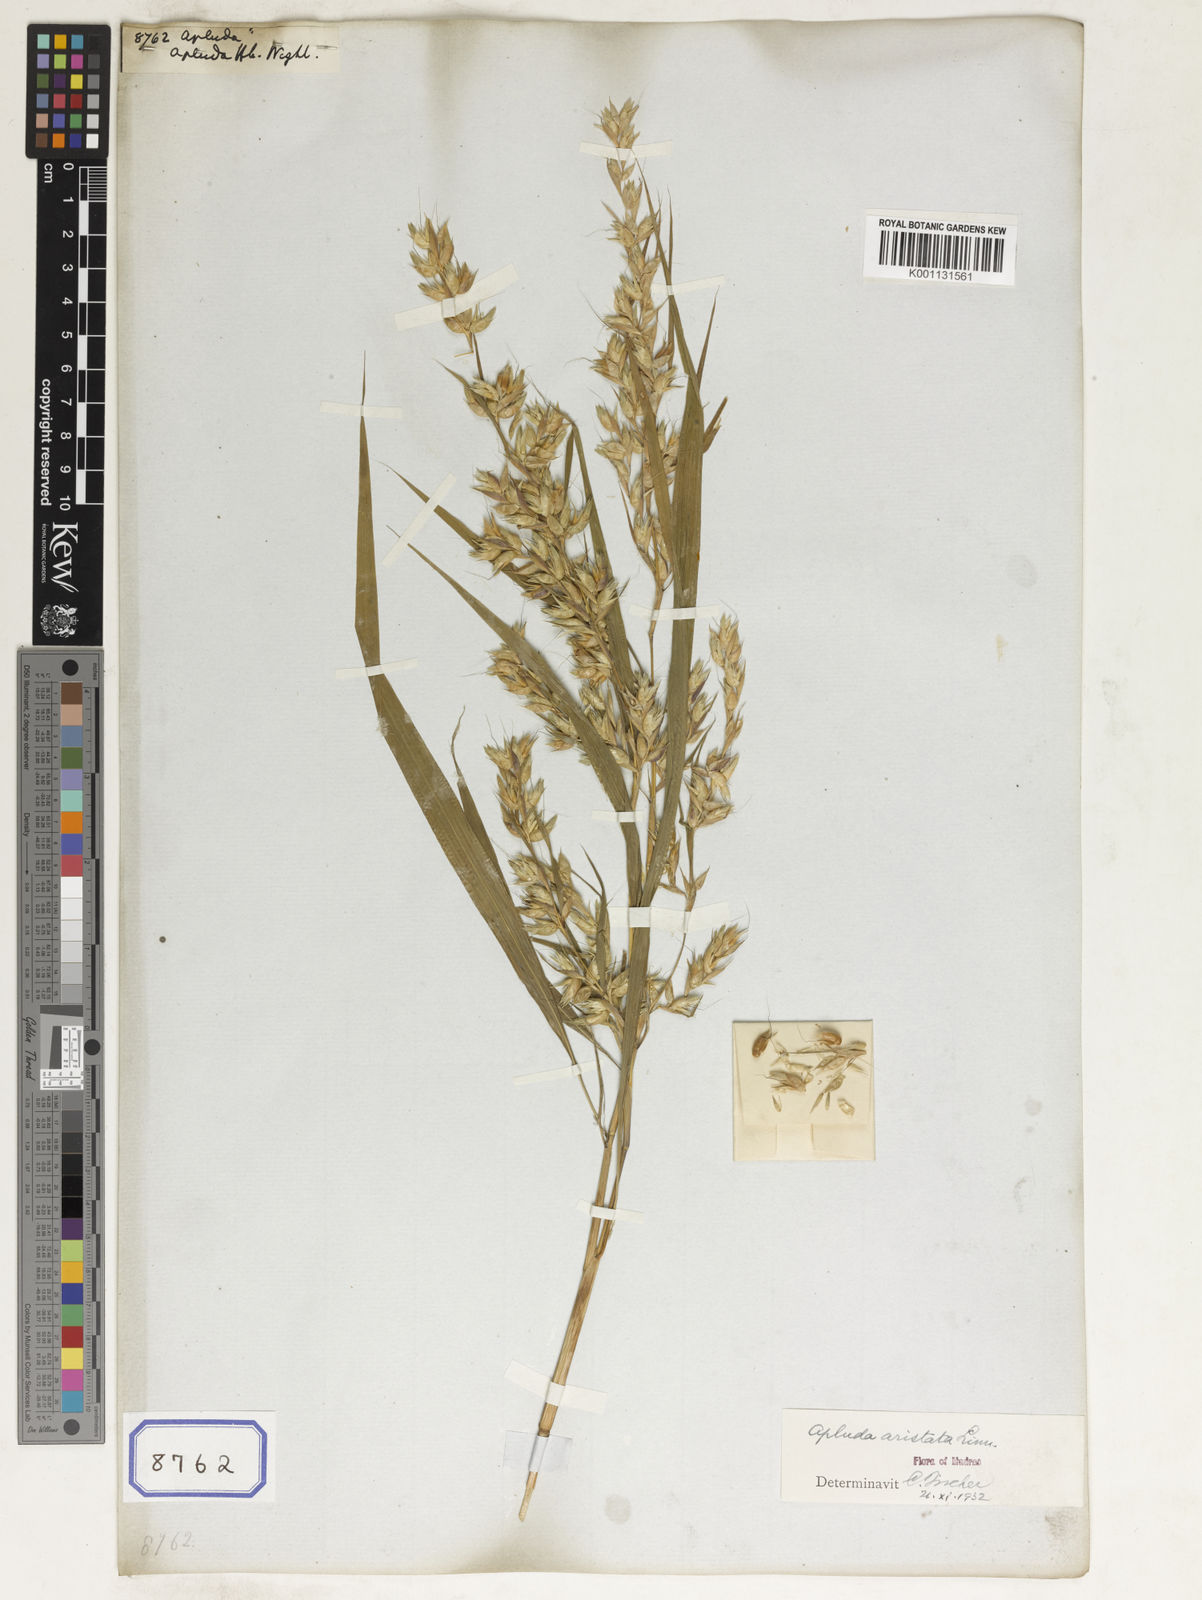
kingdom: Plantae
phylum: Tracheophyta
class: Liliopsida
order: Poales
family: Poaceae
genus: Apluda
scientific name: Apluda
